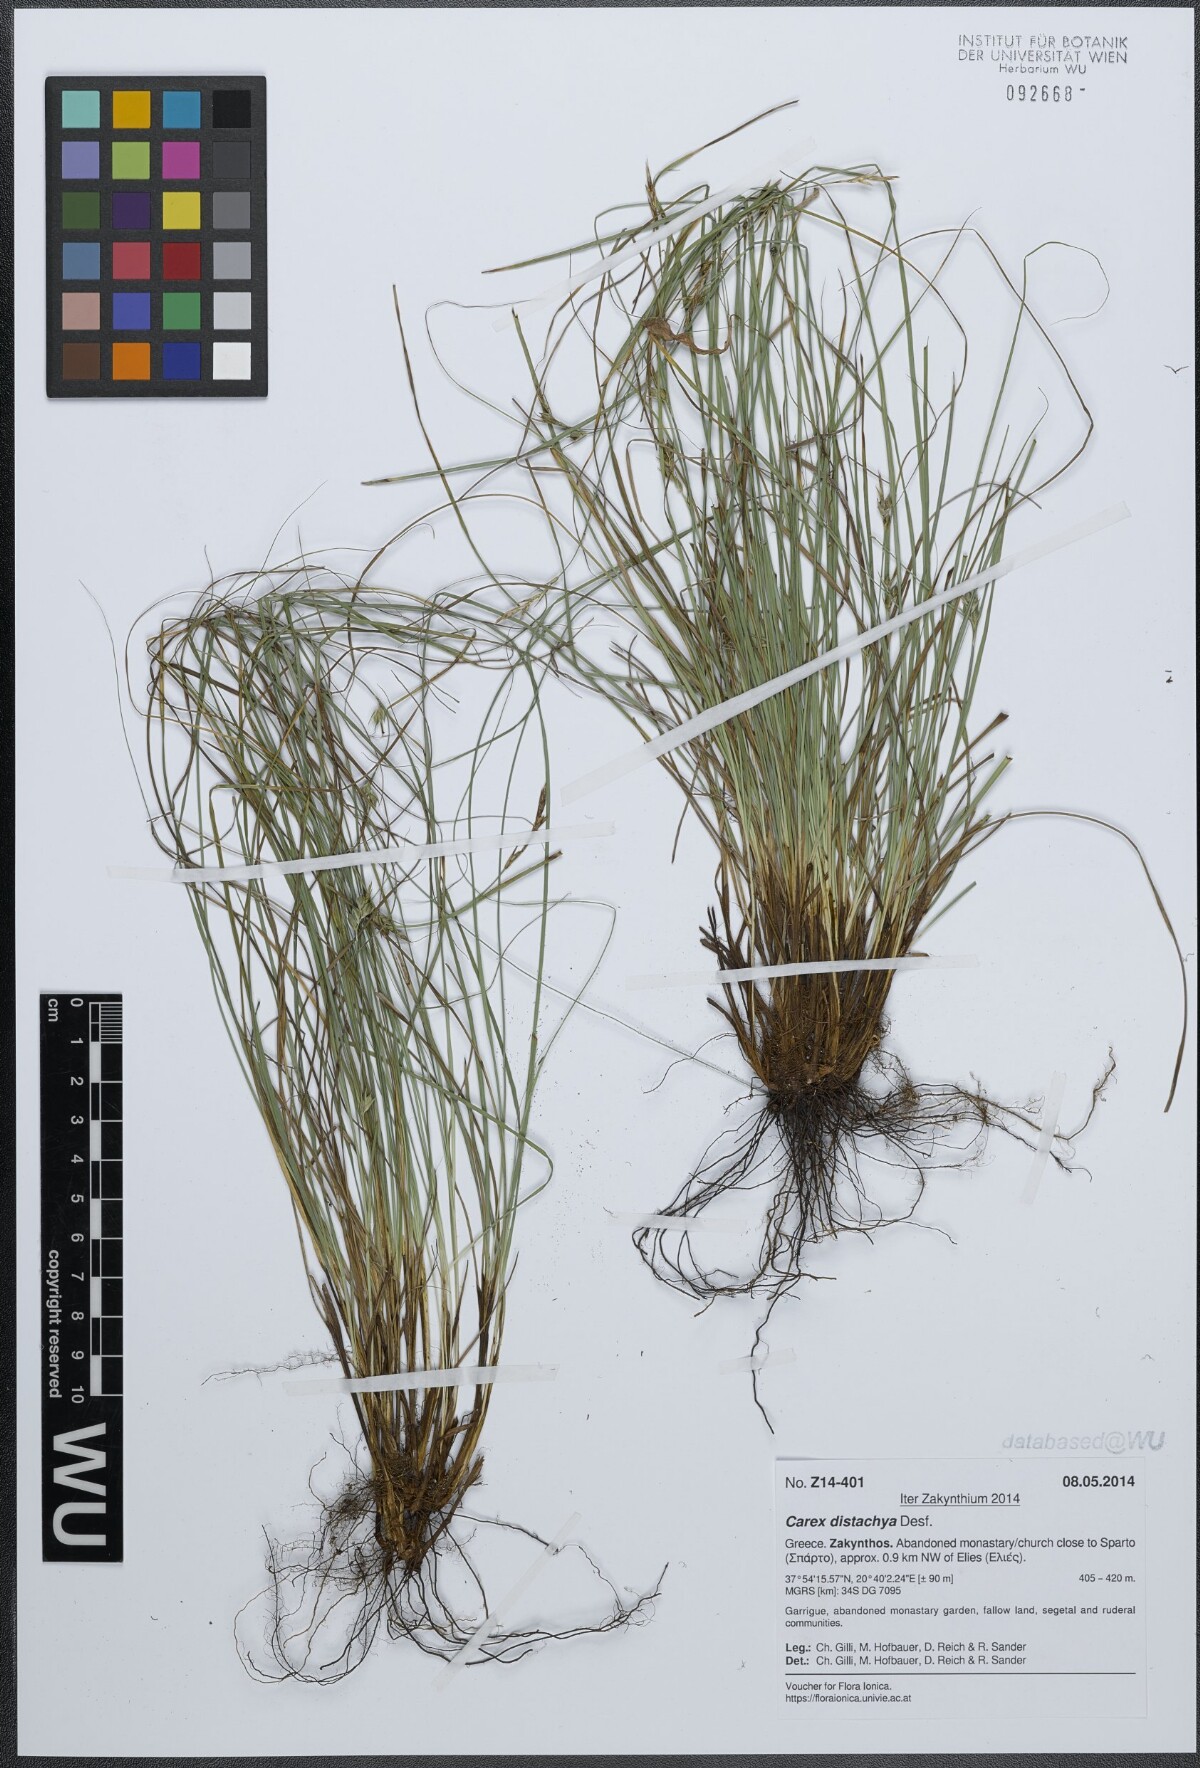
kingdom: Plantae
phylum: Tracheophyta
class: Liliopsida
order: Poales
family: Cyperaceae
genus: Carex
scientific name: Carex distachya
